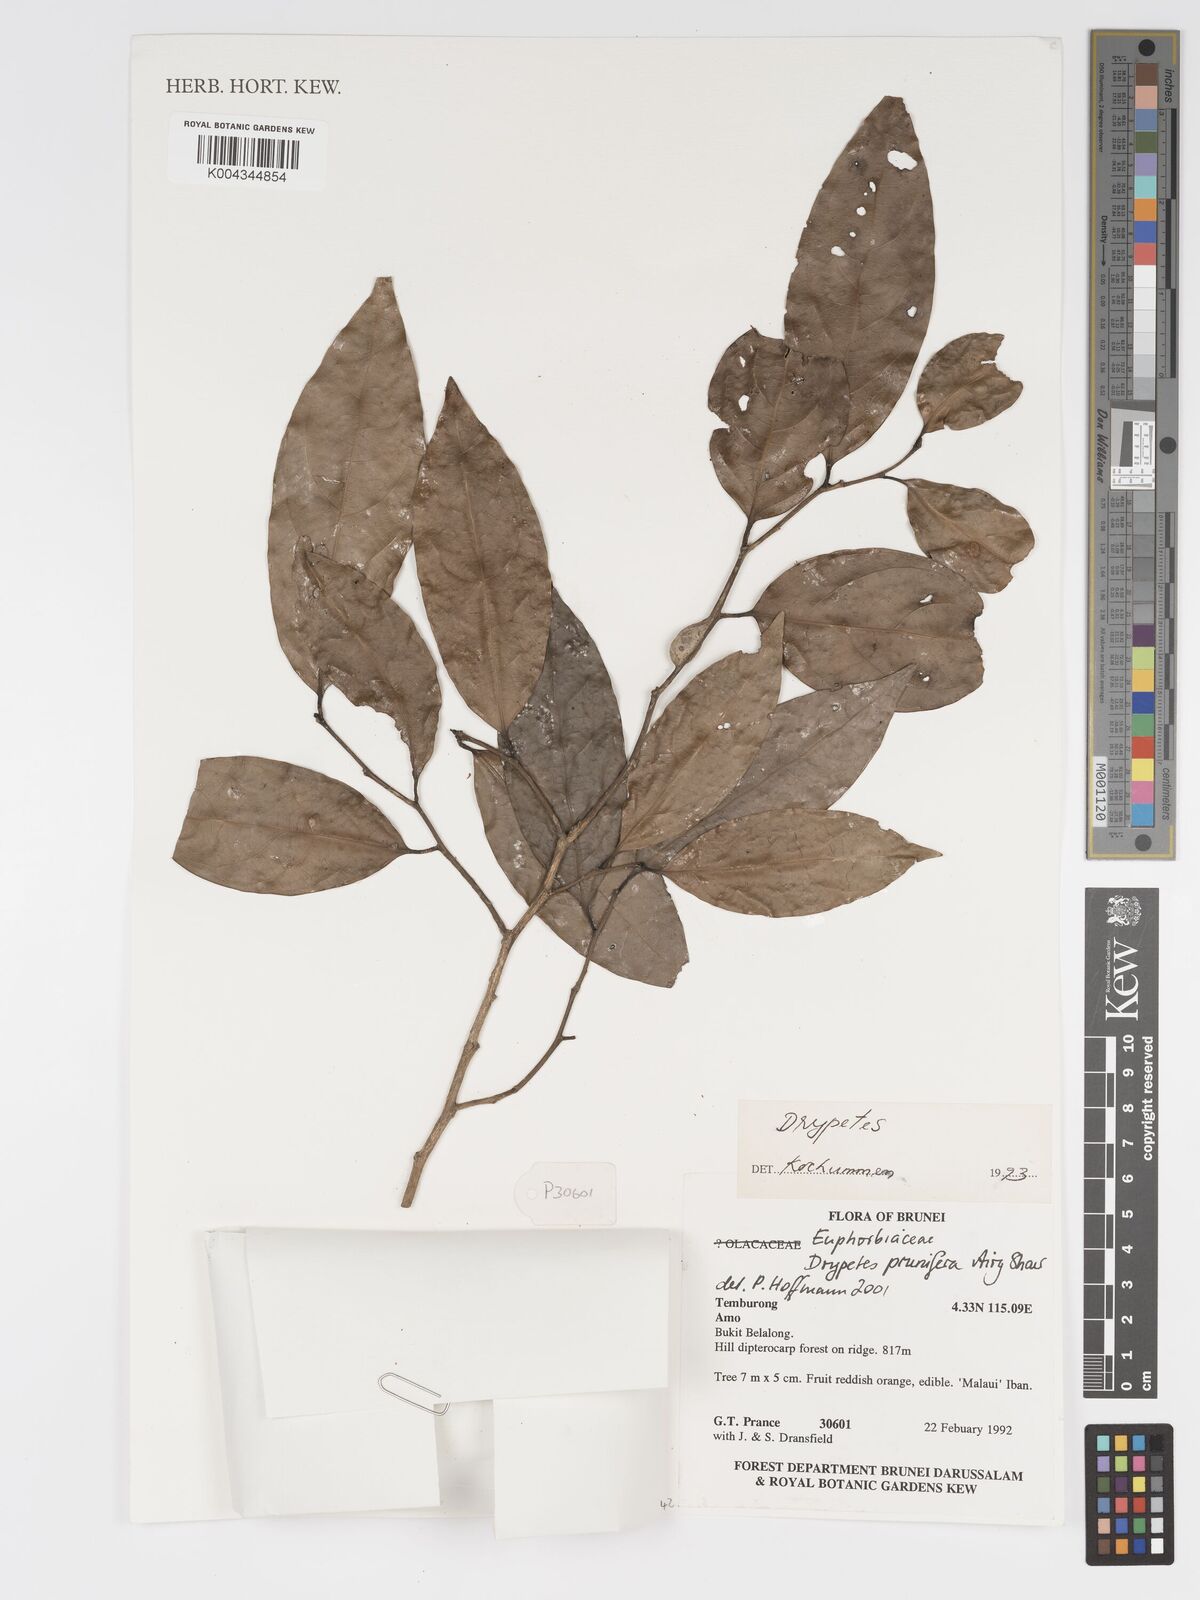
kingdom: Plantae
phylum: Tracheophyta
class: Magnoliopsida
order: Malpighiales
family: Putranjivaceae
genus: Drypetes
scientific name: Drypetes prunifera
